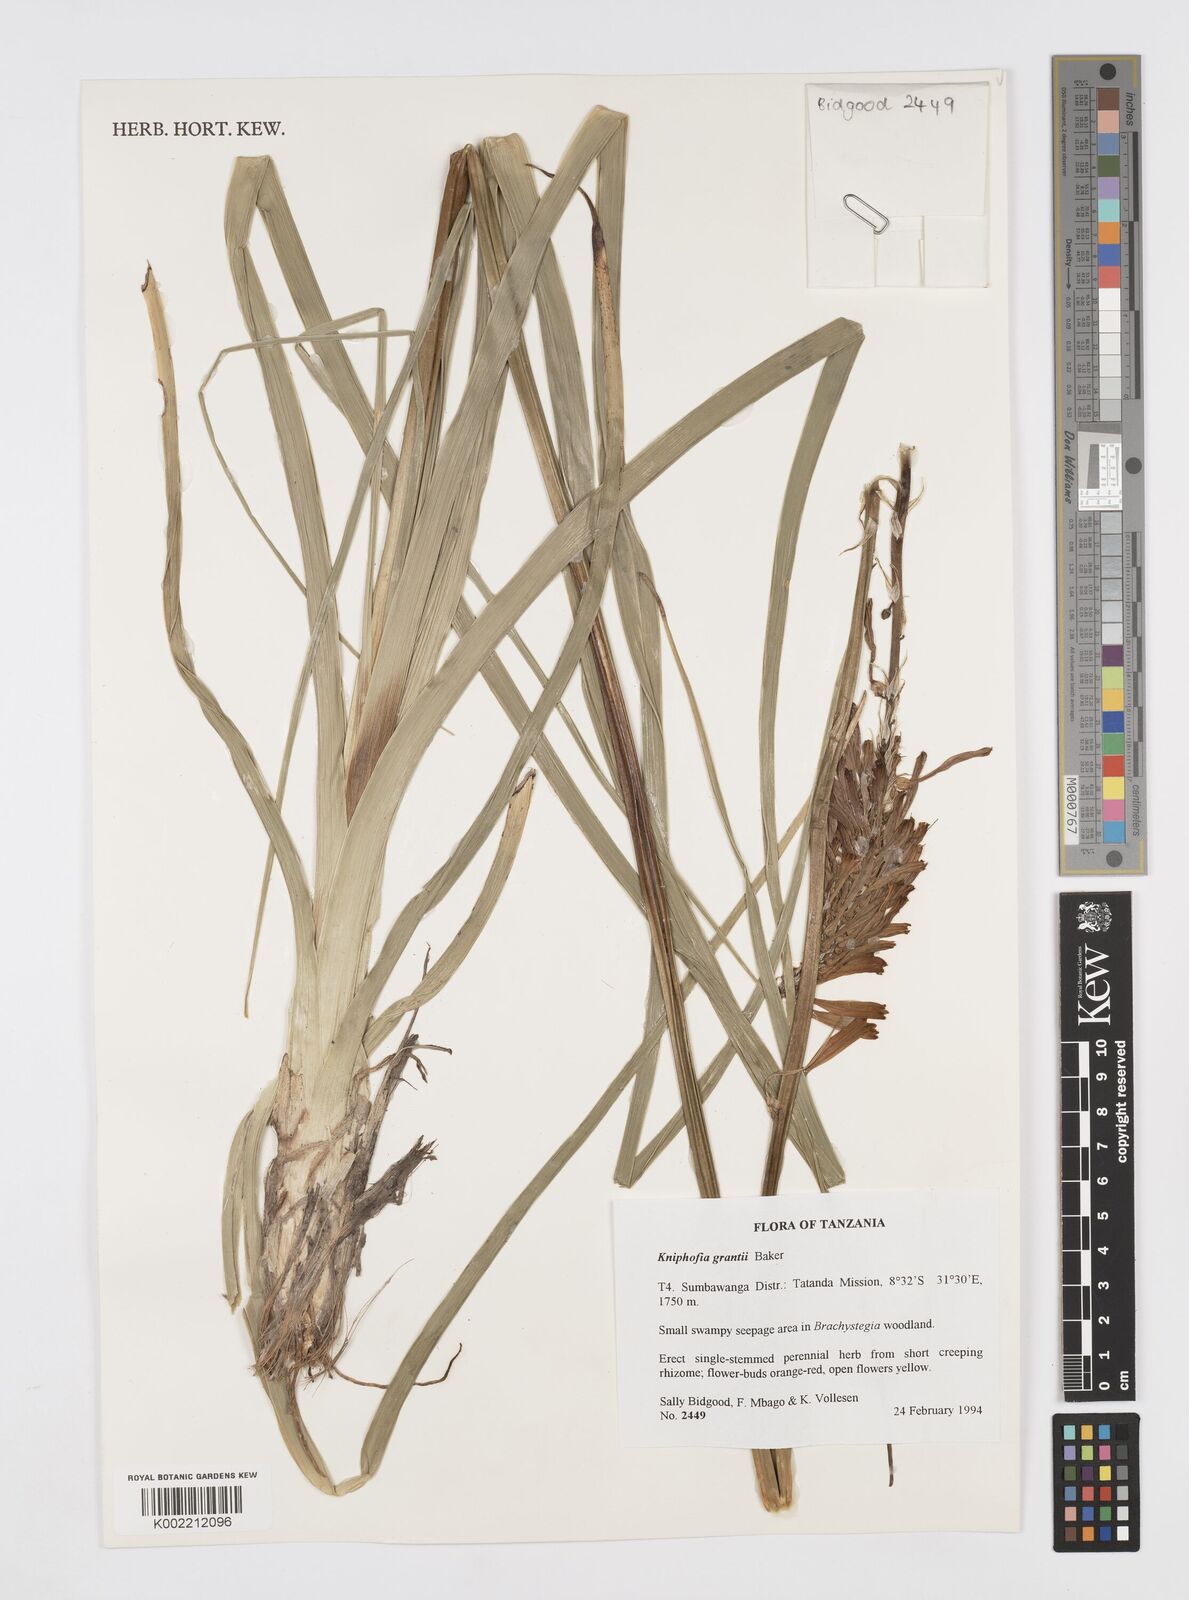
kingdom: Plantae
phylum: Tracheophyta
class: Liliopsida
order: Asparagales
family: Asphodelaceae
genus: Kniphofia
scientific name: Kniphofia grantii
